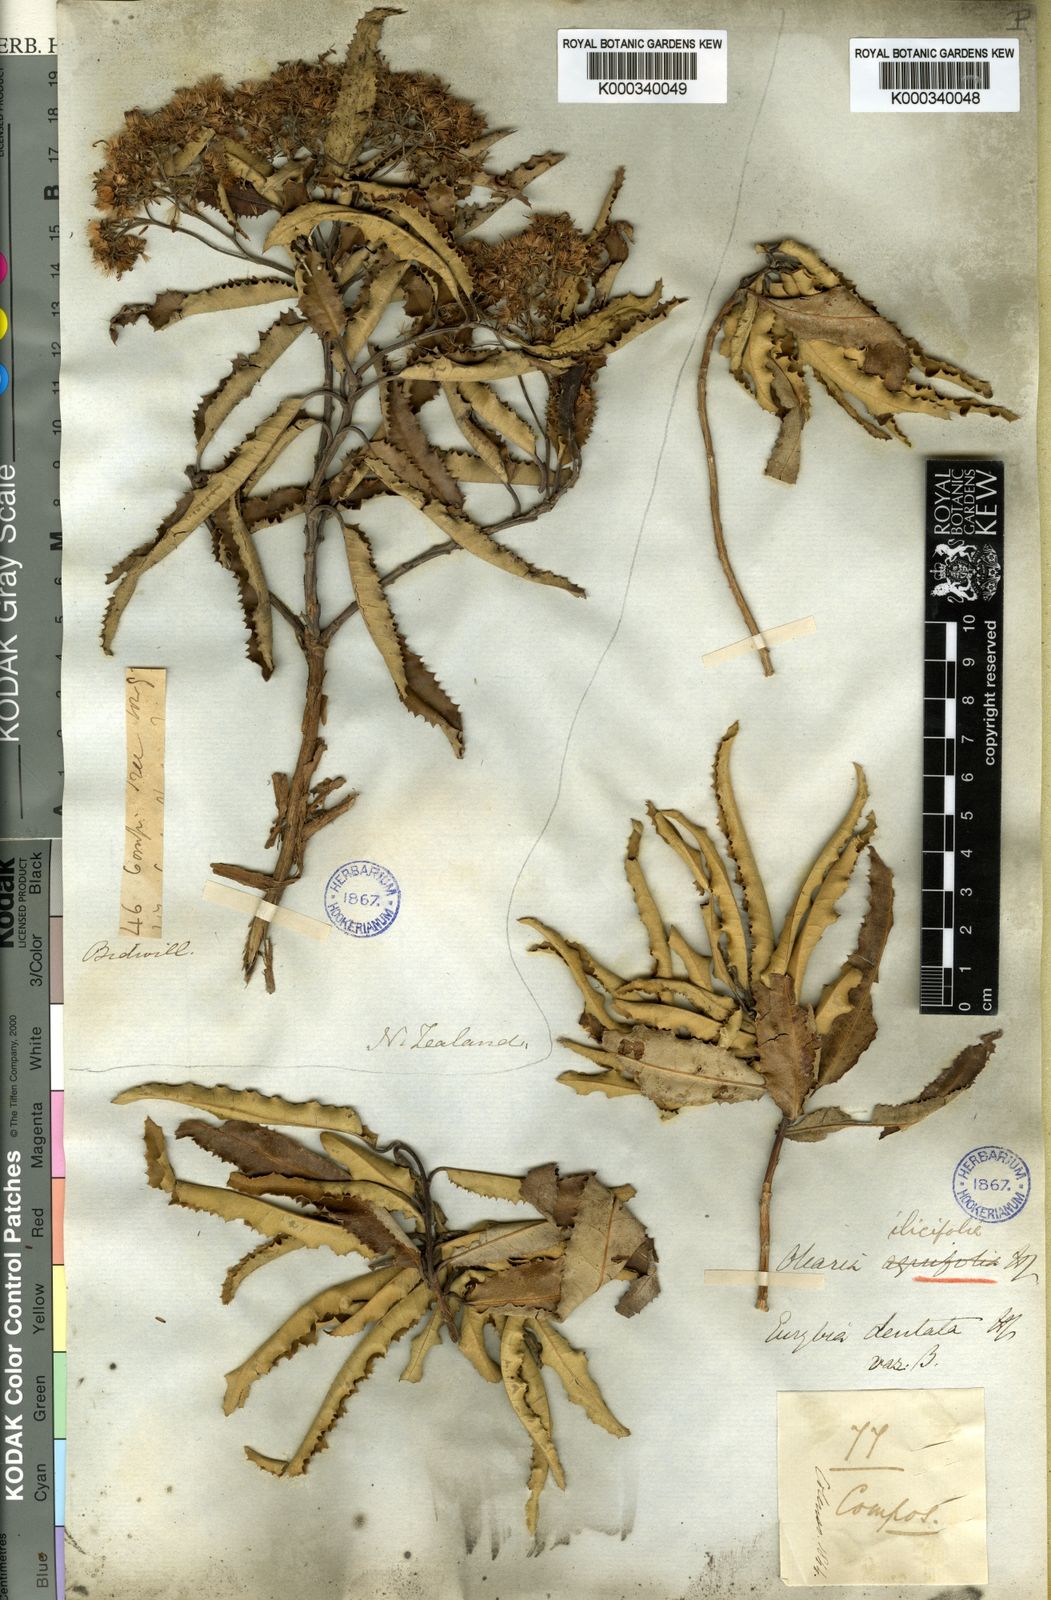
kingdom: Plantae
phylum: Tracheophyta
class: Magnoliopsida
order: Asterales
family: Asteraceae
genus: Olearia
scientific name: Olearia ilicifolia
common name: Maori-holly
